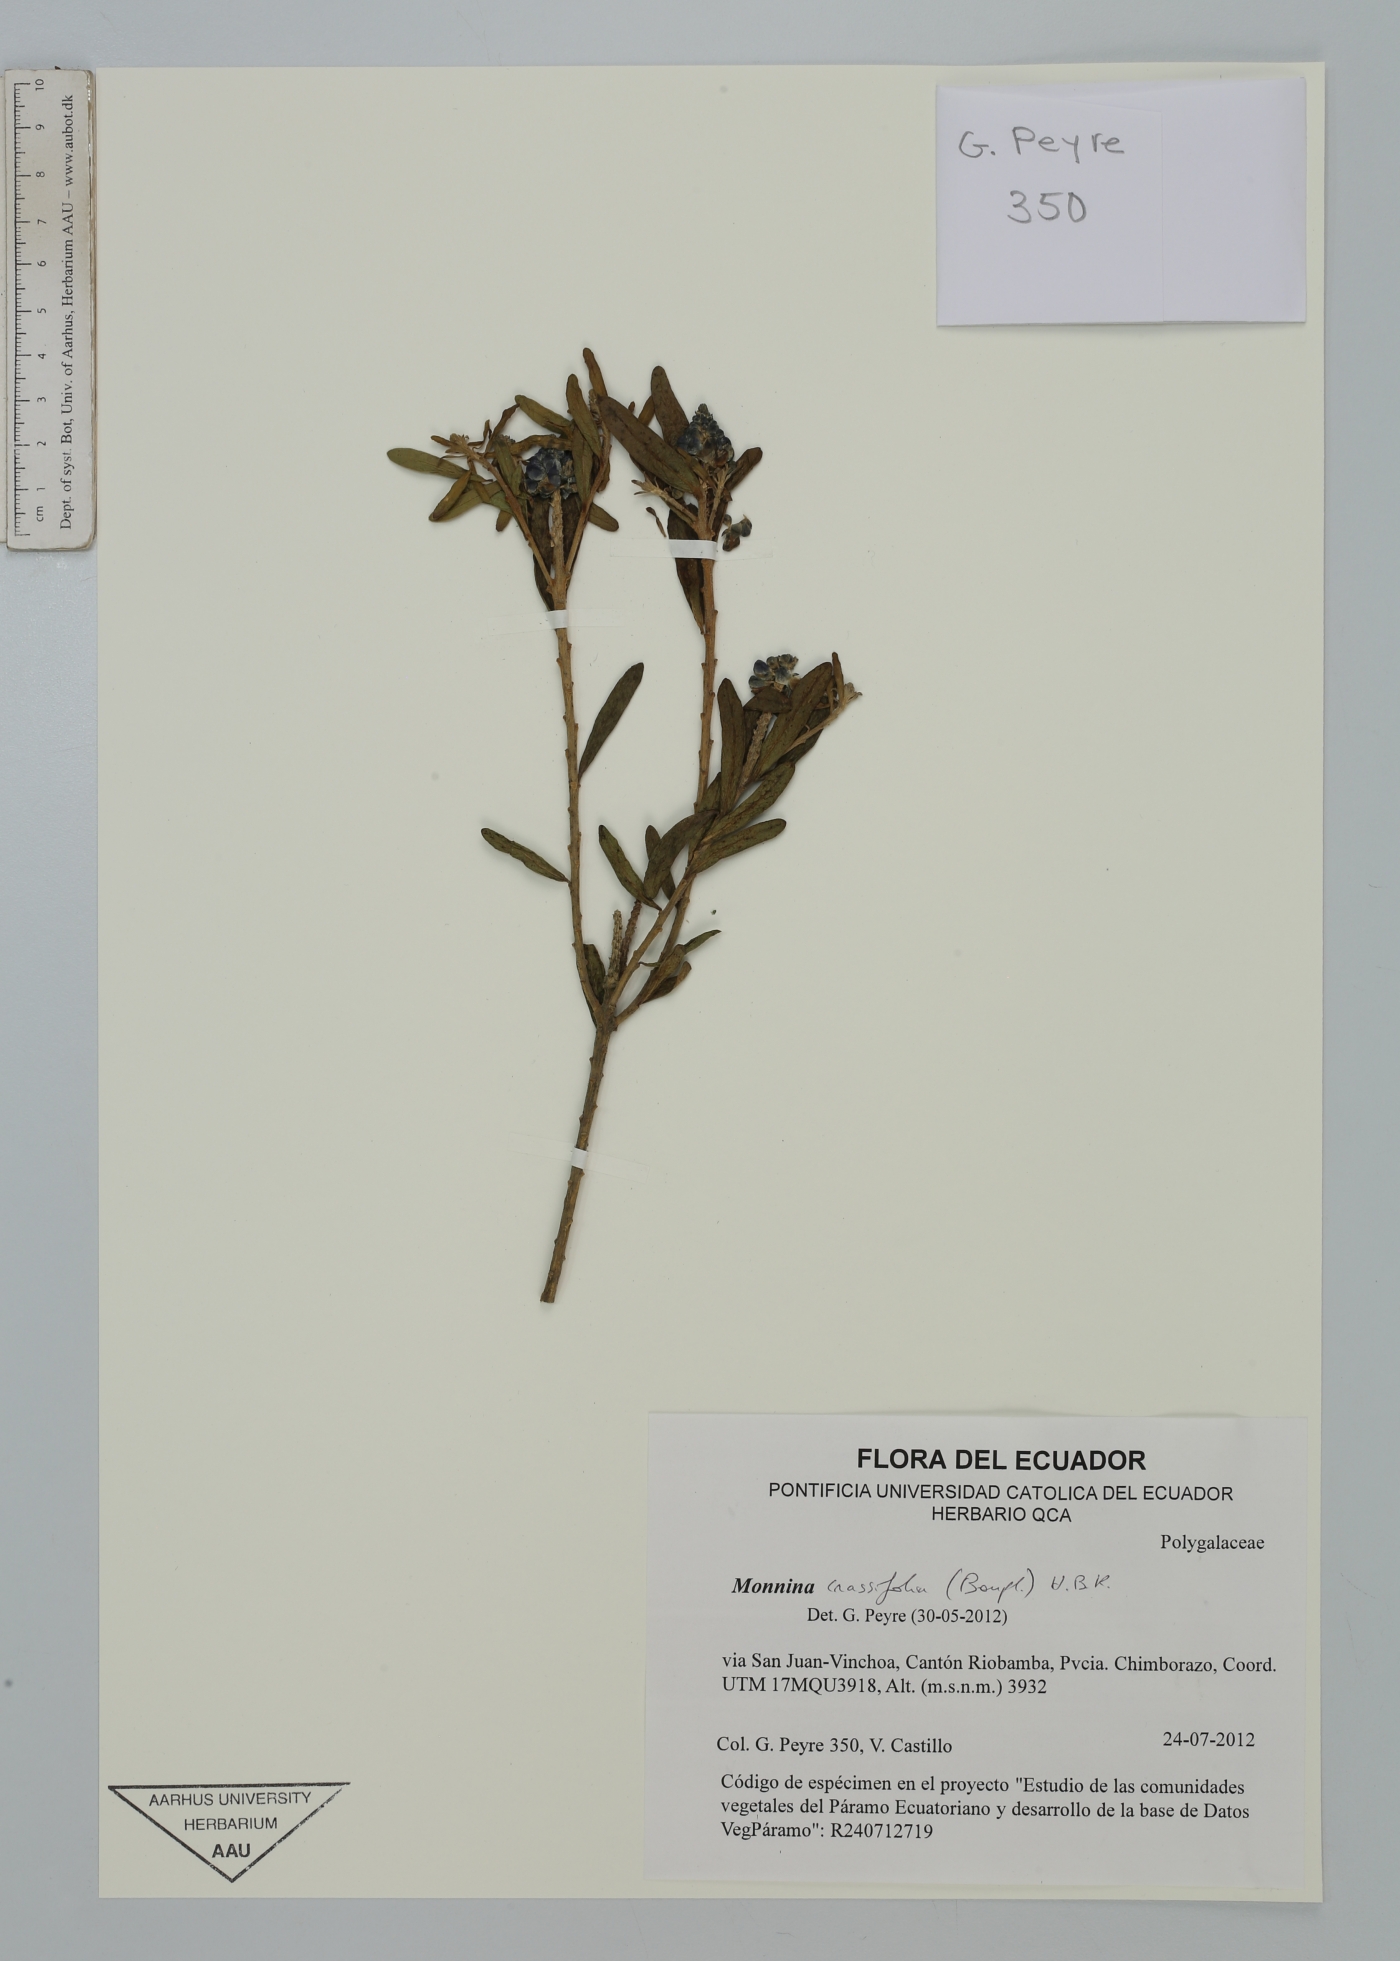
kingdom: Plantae
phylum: Tracheophyta
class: Magnoliopsida
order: Fabales
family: Polygalaceae
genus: Monnina
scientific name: Monnina crassifolia
